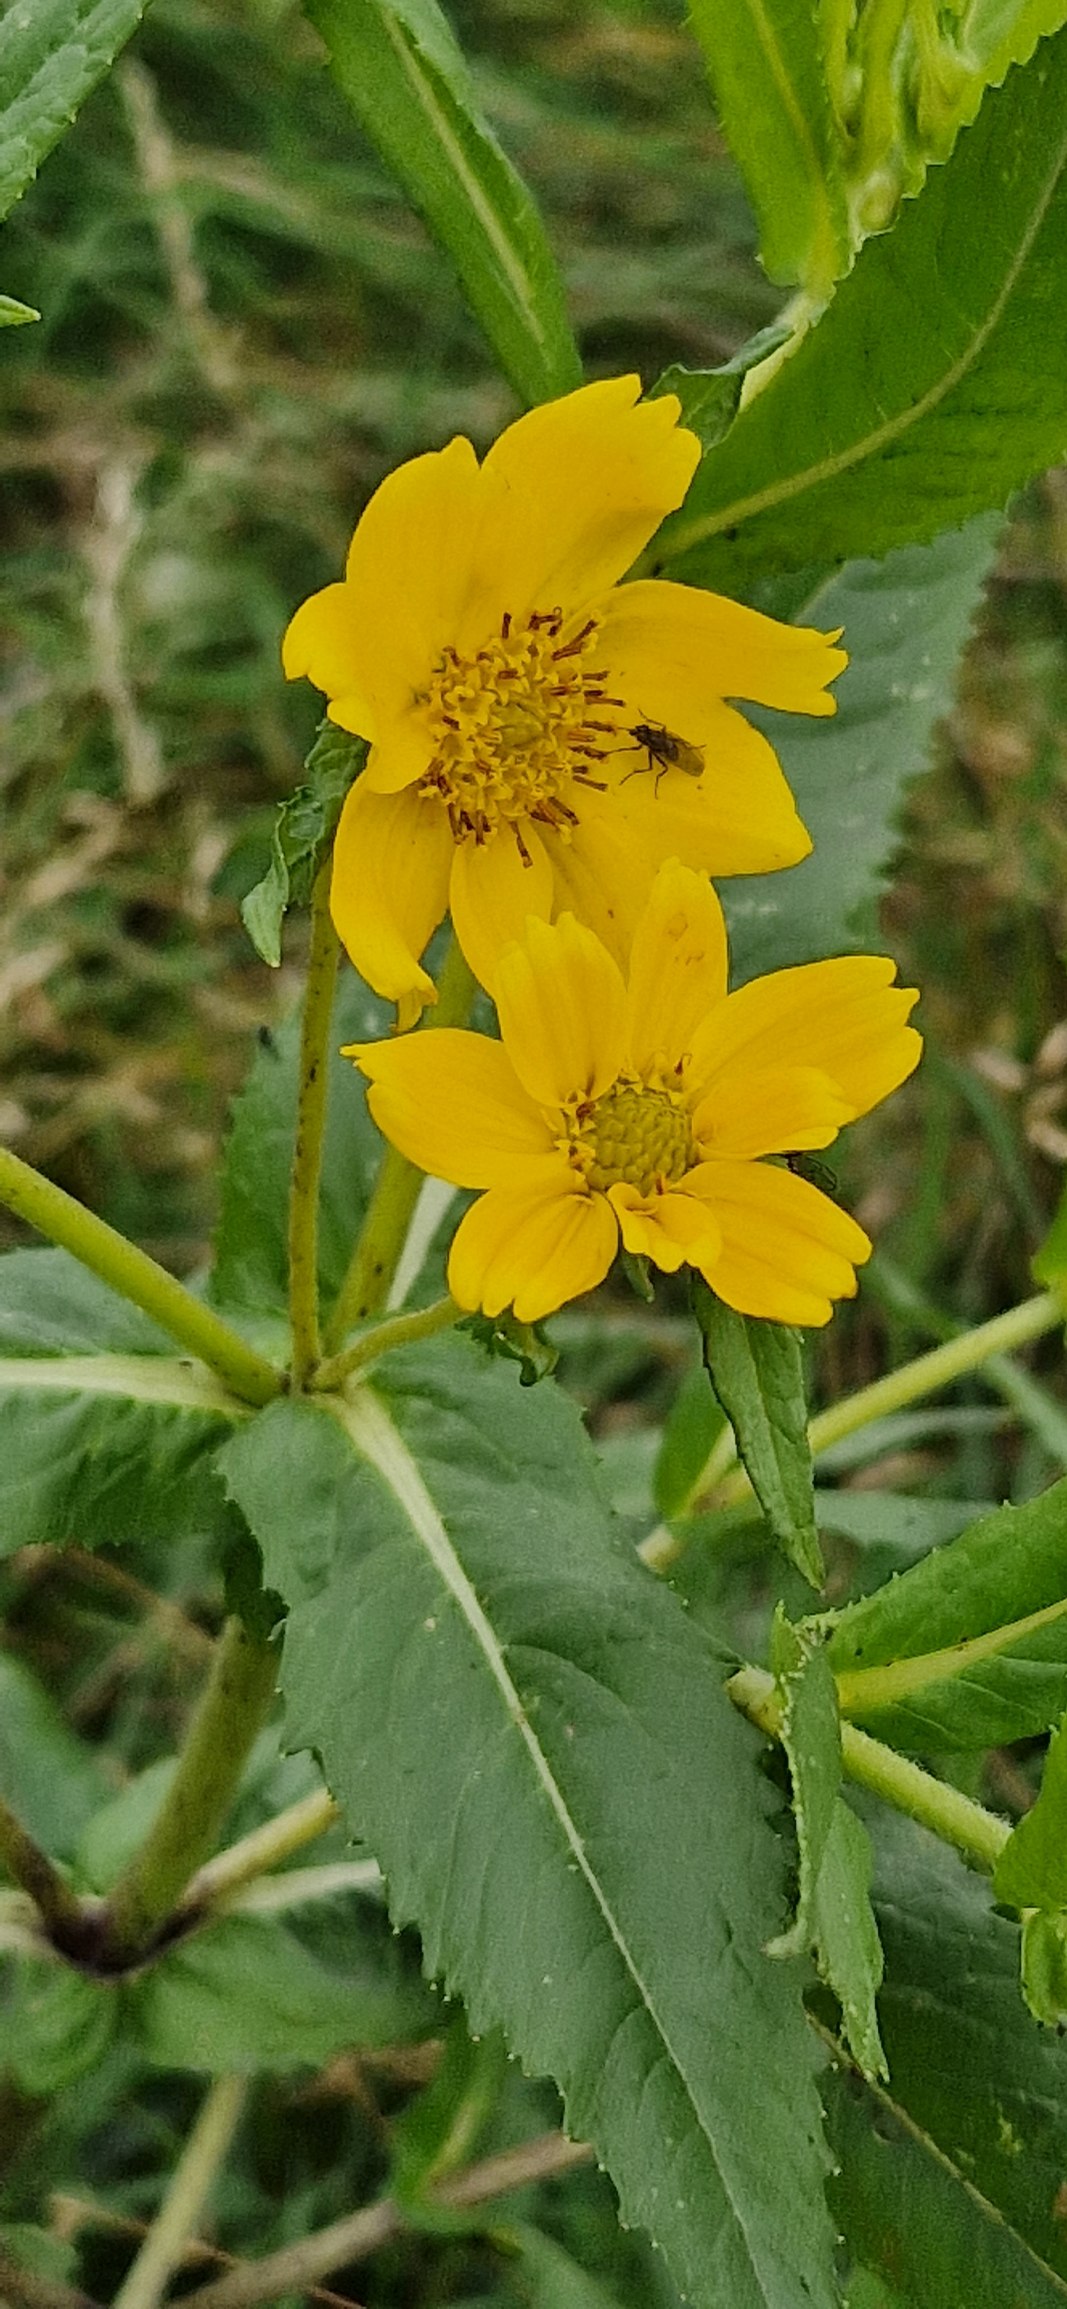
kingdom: Plantae
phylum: Tracheophyta
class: Magnoliopsida
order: Asterales
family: Asteraceae
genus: Guizotia
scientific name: Guizotia abyssinica
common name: Nigerfrø
